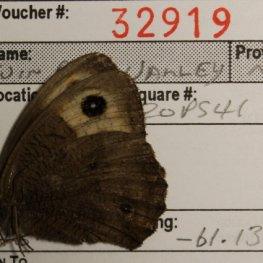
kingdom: Animalia
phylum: Arthropoda
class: Insecta
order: Lepidoptera
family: Nymphalidae
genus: Cercyonis
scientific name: Cercyonis pegala
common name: Common Wood-Nymph
